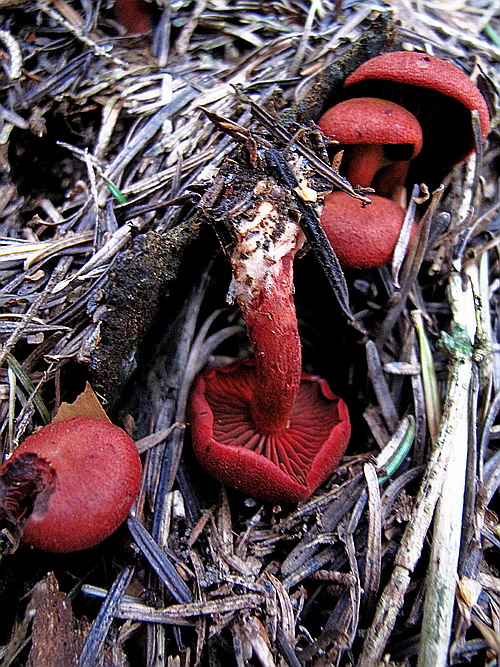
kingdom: Fungi
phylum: Basidiomycota
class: Agaricomycetes
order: Agaricales
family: Cortinariaceae
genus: Cortinarius
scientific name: Cortinarius sanguineus
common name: blodrød slørhat
